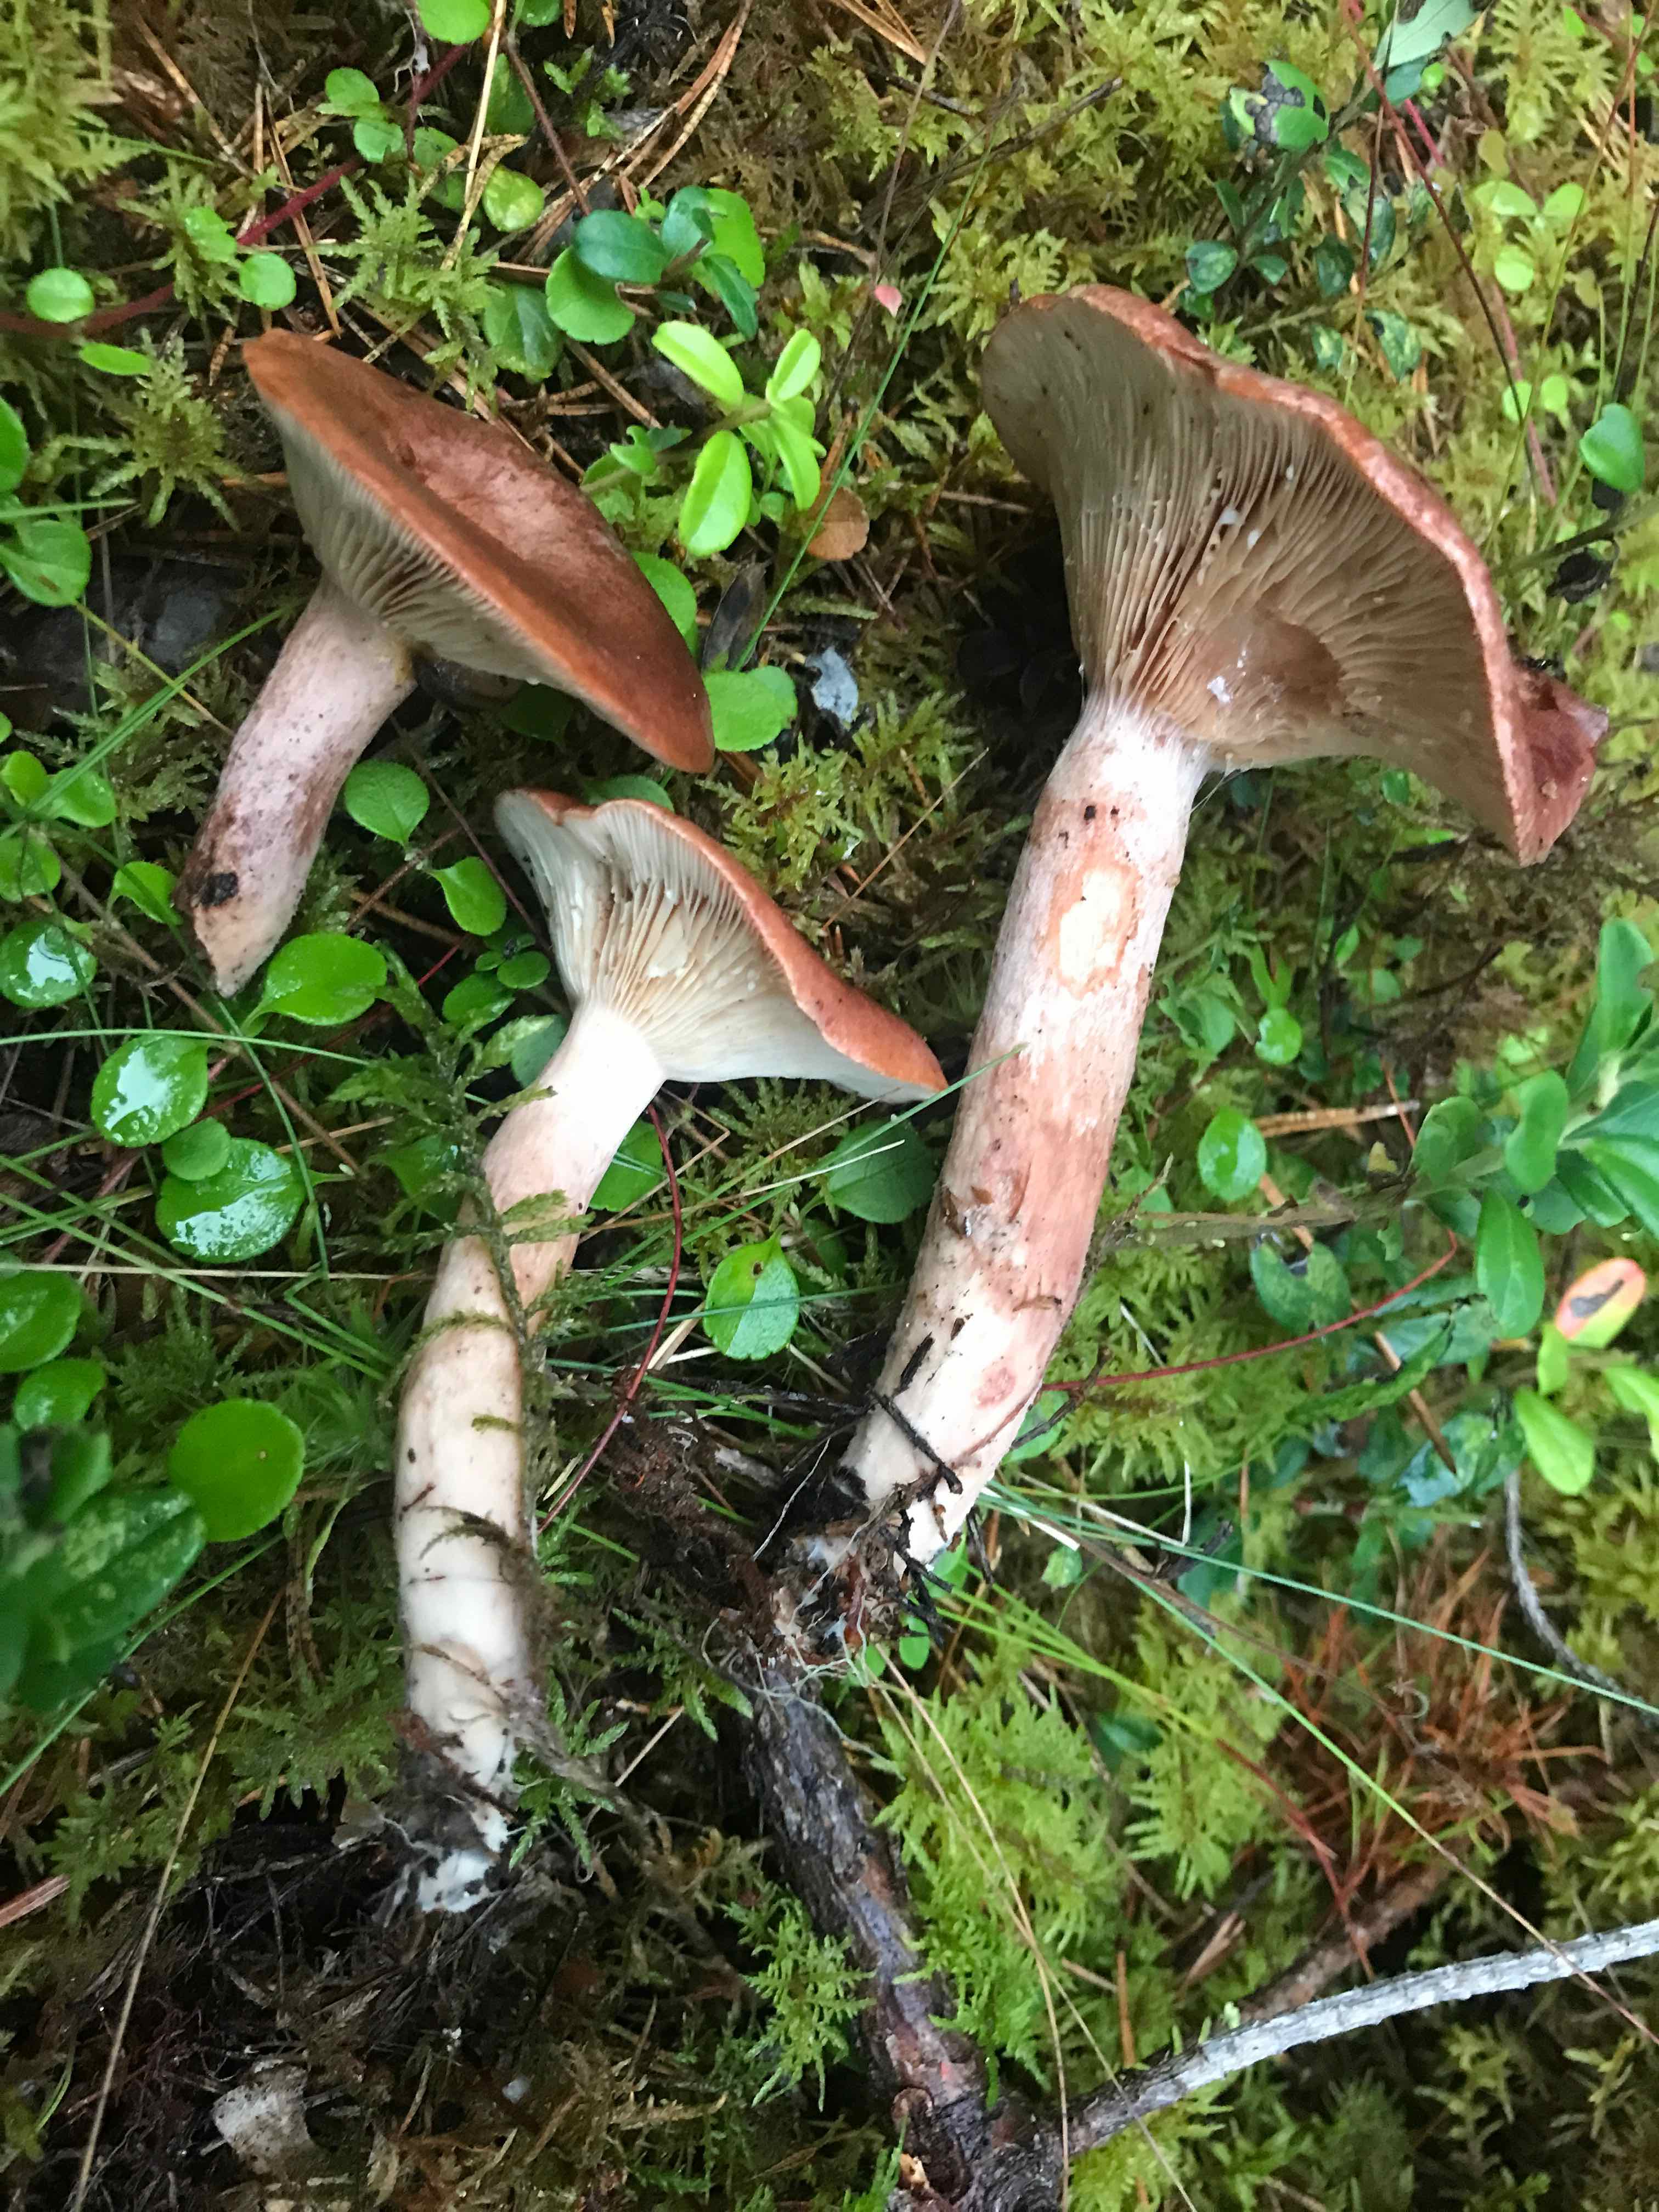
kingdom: Fungi
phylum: Basidiomycota
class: Agaricomycetes
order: Russulales
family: Russulaceae
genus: Lactarius
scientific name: Lactarius rufus
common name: rødbrun mælkehat
